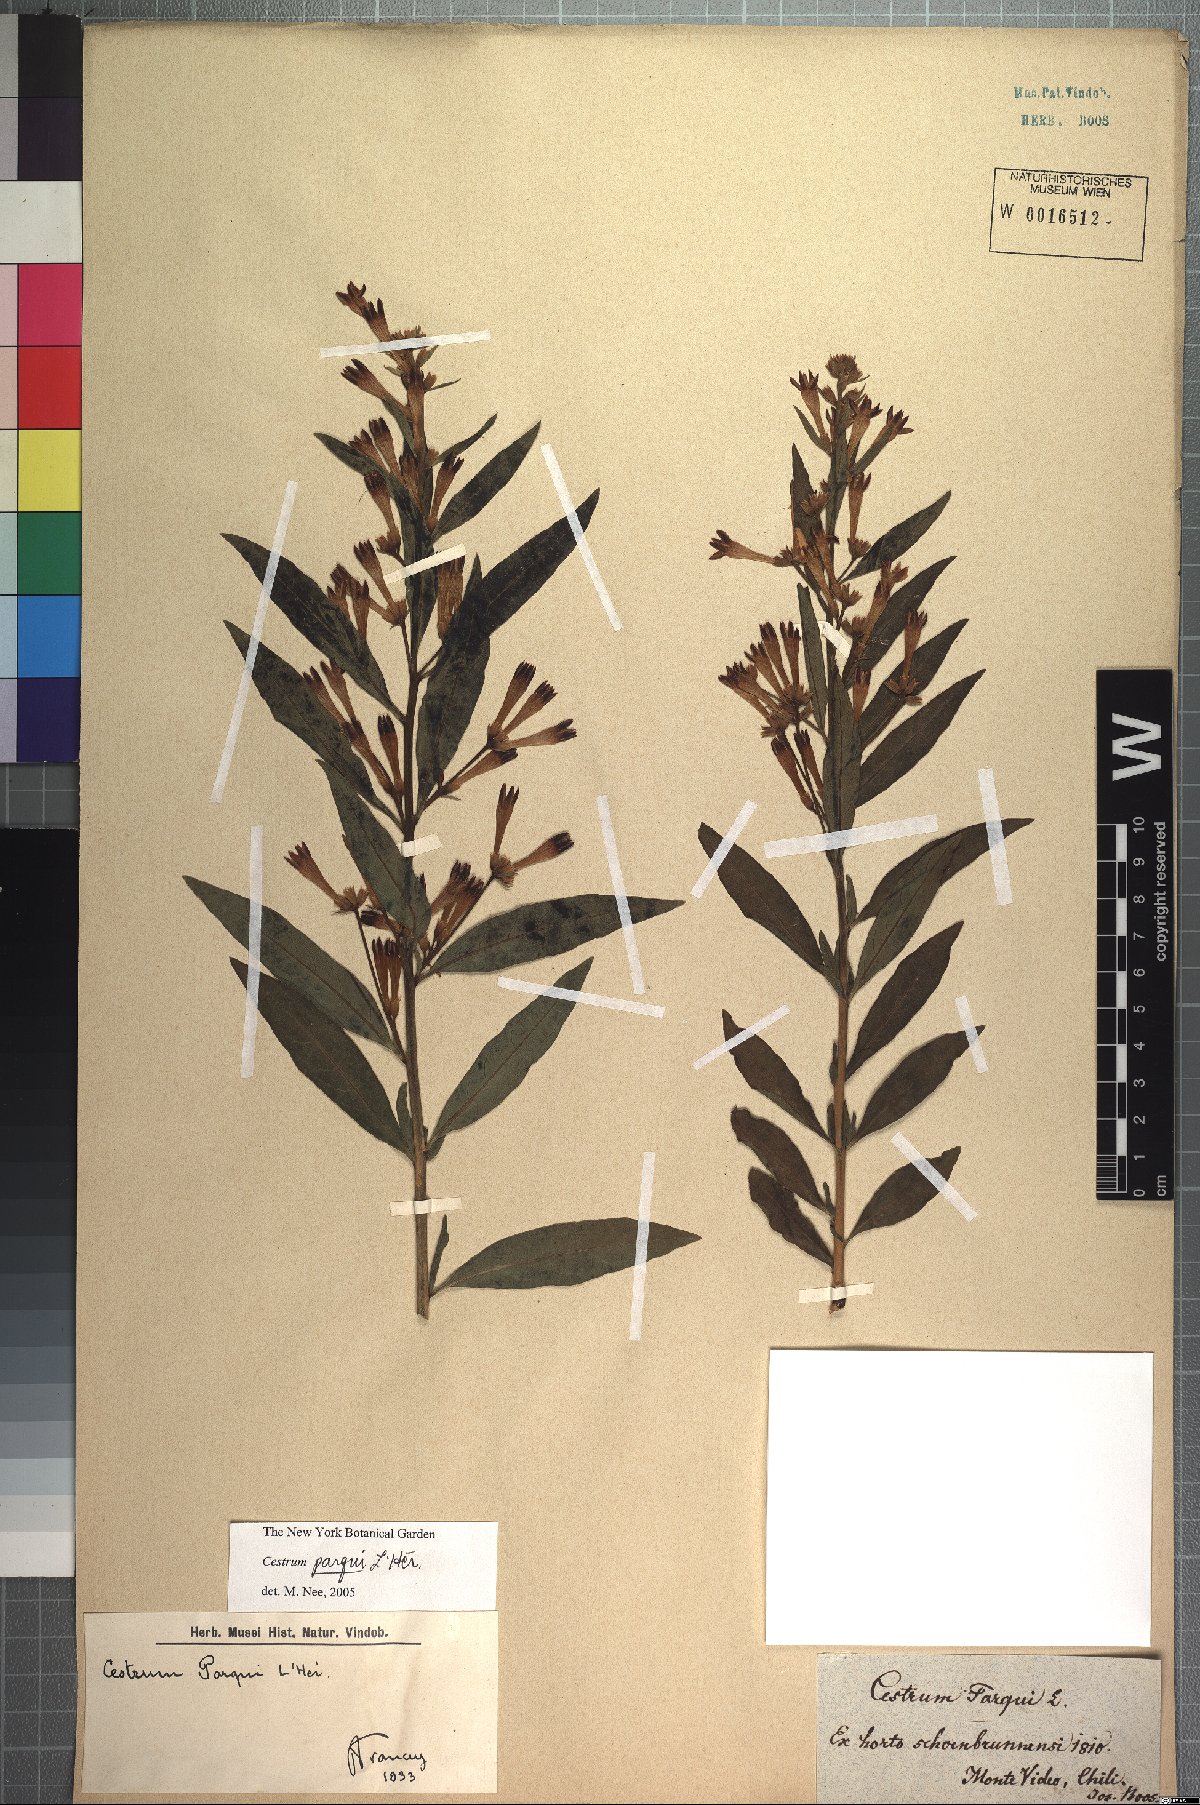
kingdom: Plantae
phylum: Tracheophyta
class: Magnoliopsida
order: Solanales
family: Solanaceae
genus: Cestrum
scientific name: Cestrum thyrsoideum
